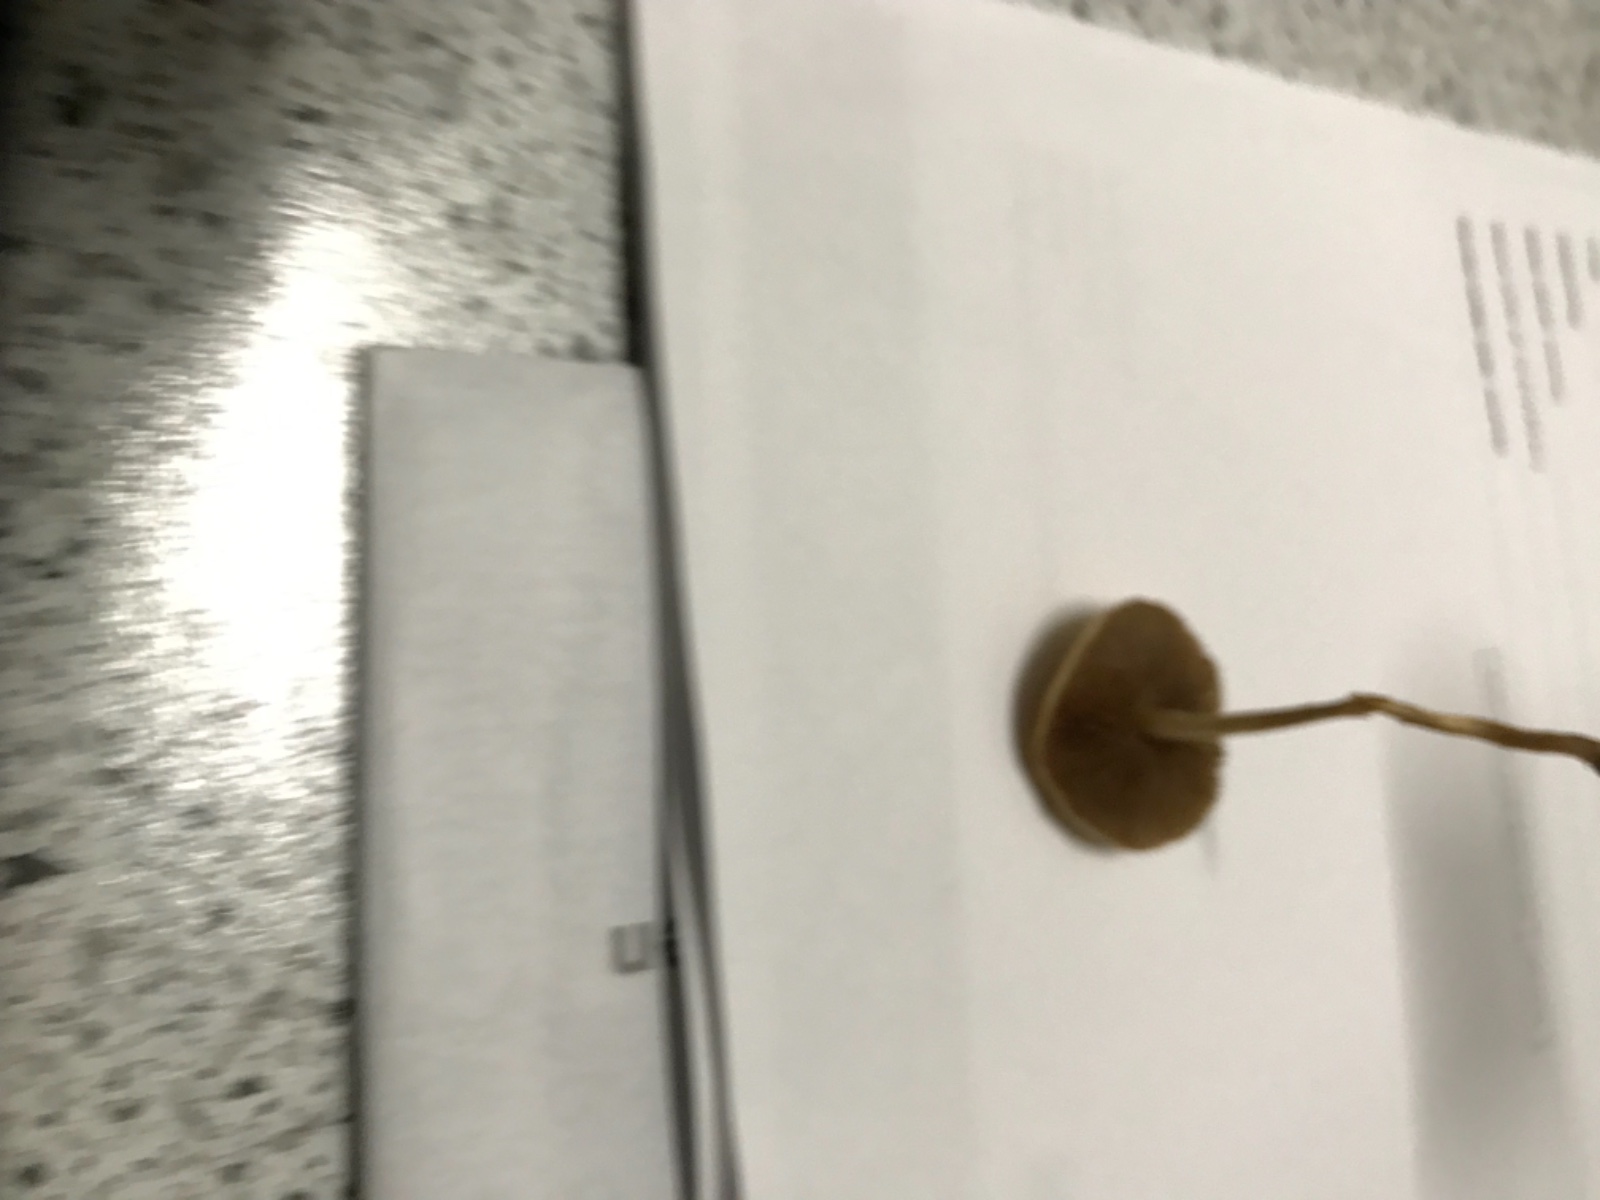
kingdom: Fungi
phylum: Basidiomycota
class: Agaricomycetes
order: Agaricales
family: Strophariaceae
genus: Agrocybe
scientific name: Agrocybe pediades
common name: almindelig agerhat
